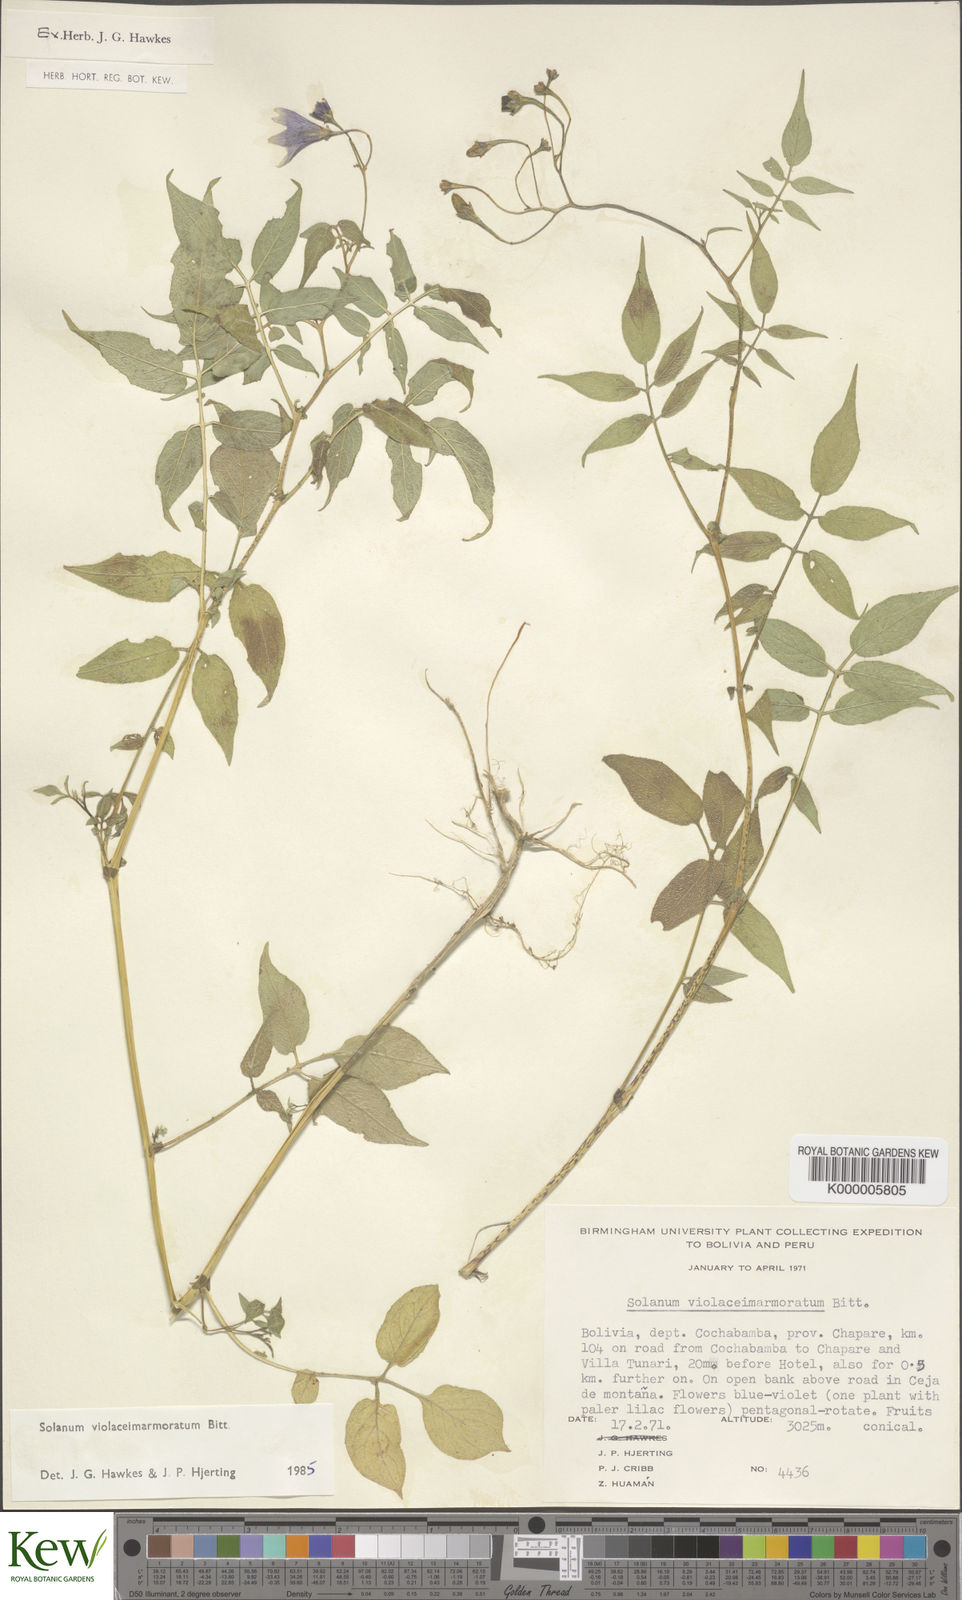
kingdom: Plantae
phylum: Tracheophyta
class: Magnoliopsida
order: Solanales
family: Solanaceae
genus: Solanum
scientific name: Solanum violaceimarmoratum
